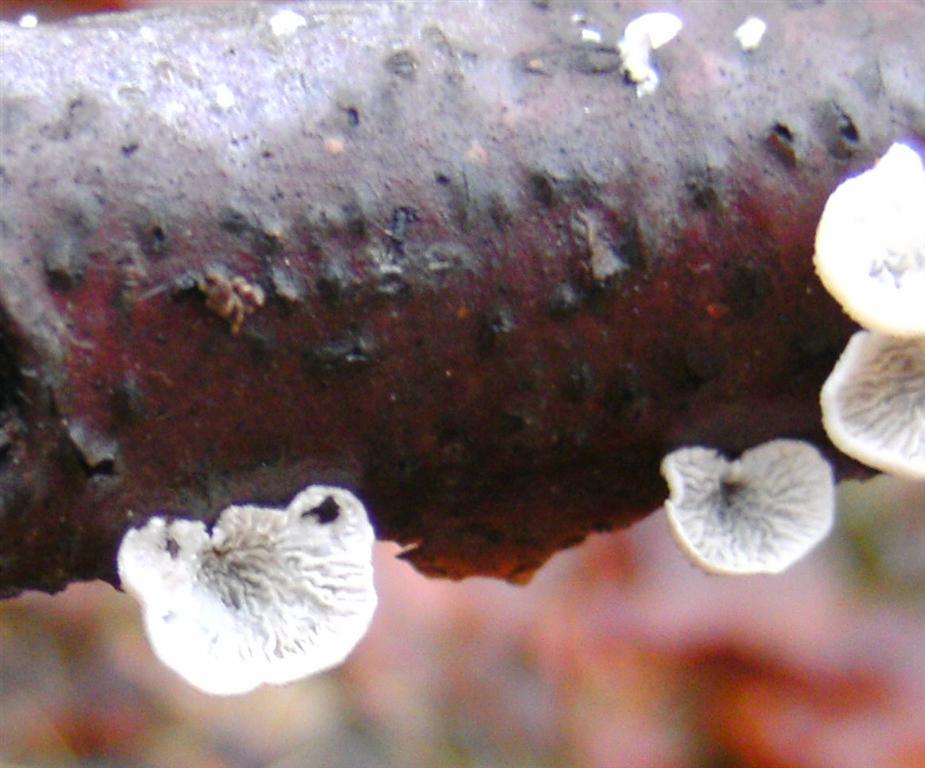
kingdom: Fungi
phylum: Basidiomycota
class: Agaricomycetes
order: Amylocorticiales
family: Amylocorticiaceae
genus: Plicaturopsis
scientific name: Plicaturopsis crispa
